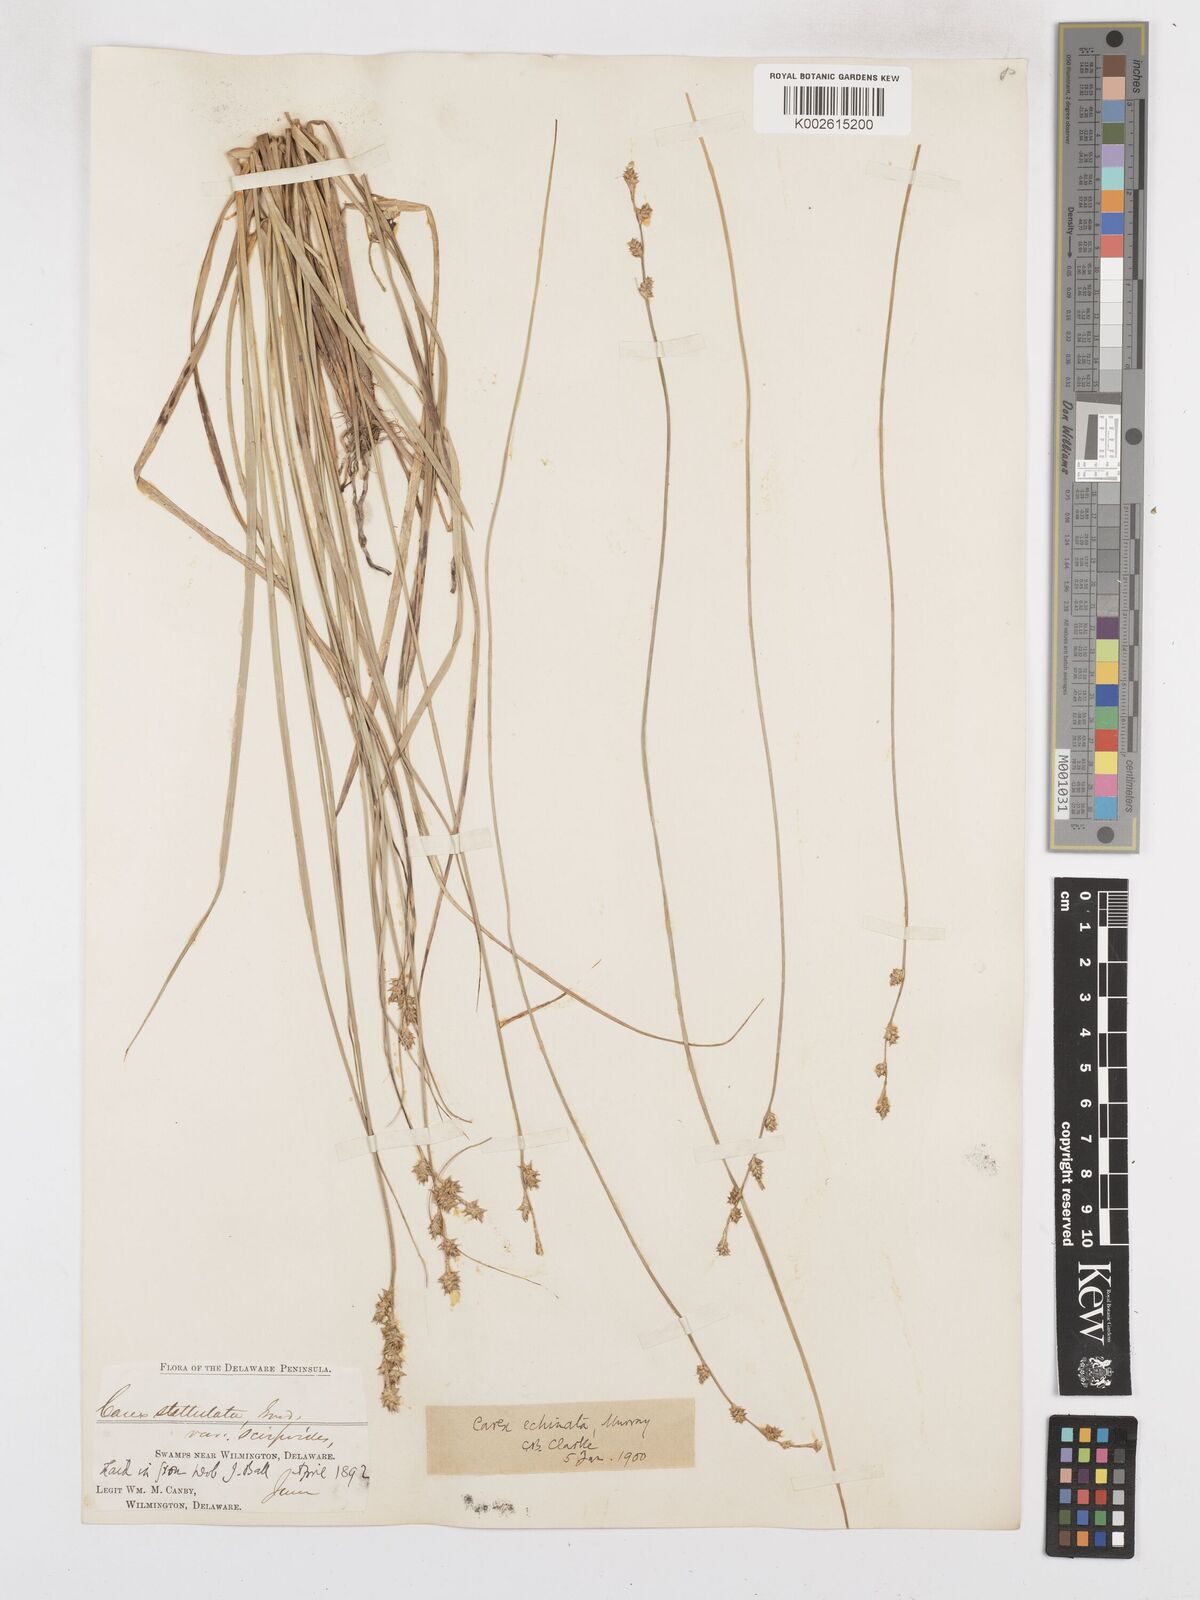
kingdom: Plantae
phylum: Tracheophyta
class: Liliopsida
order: Poales
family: Cyperaceae
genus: Carex
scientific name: Carex echinata
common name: Star sedge
